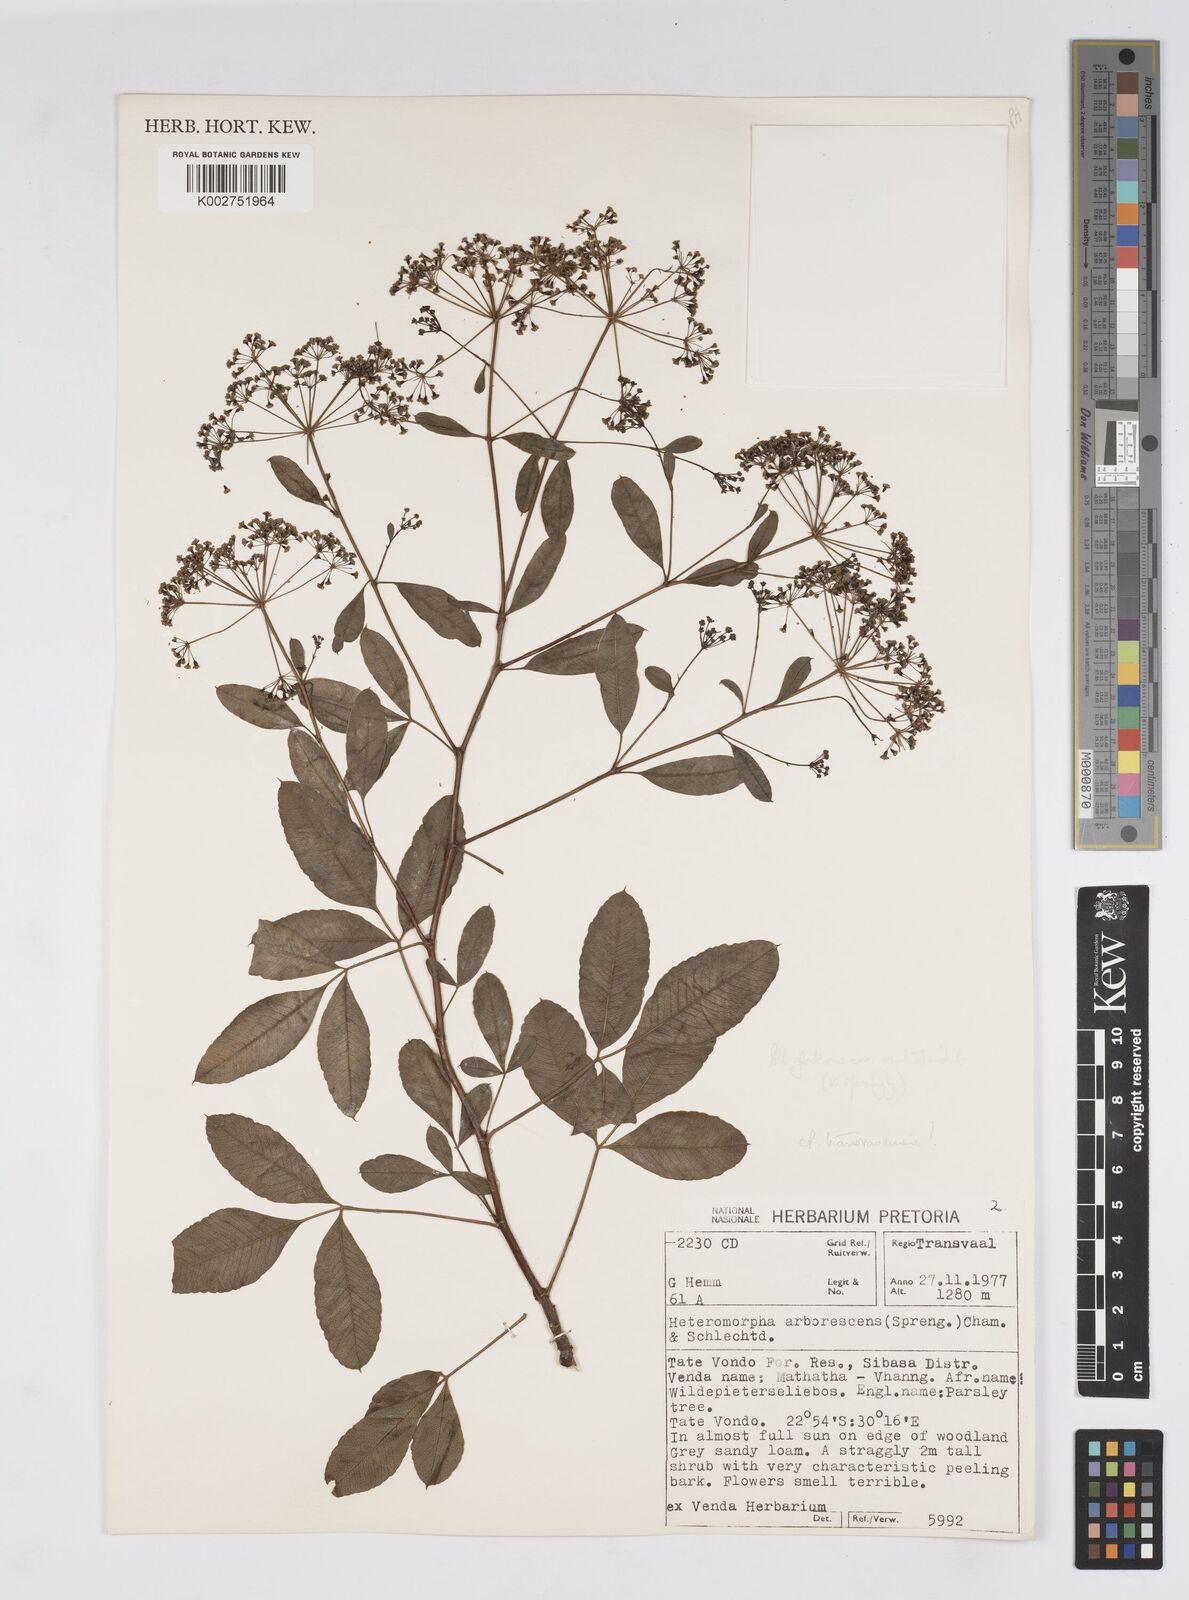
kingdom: Plantae
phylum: Tracheophyta
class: Magnoliopsida
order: Apiales
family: Apiaceae
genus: Heteromorpha
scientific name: Heteromorpha stenophylla
